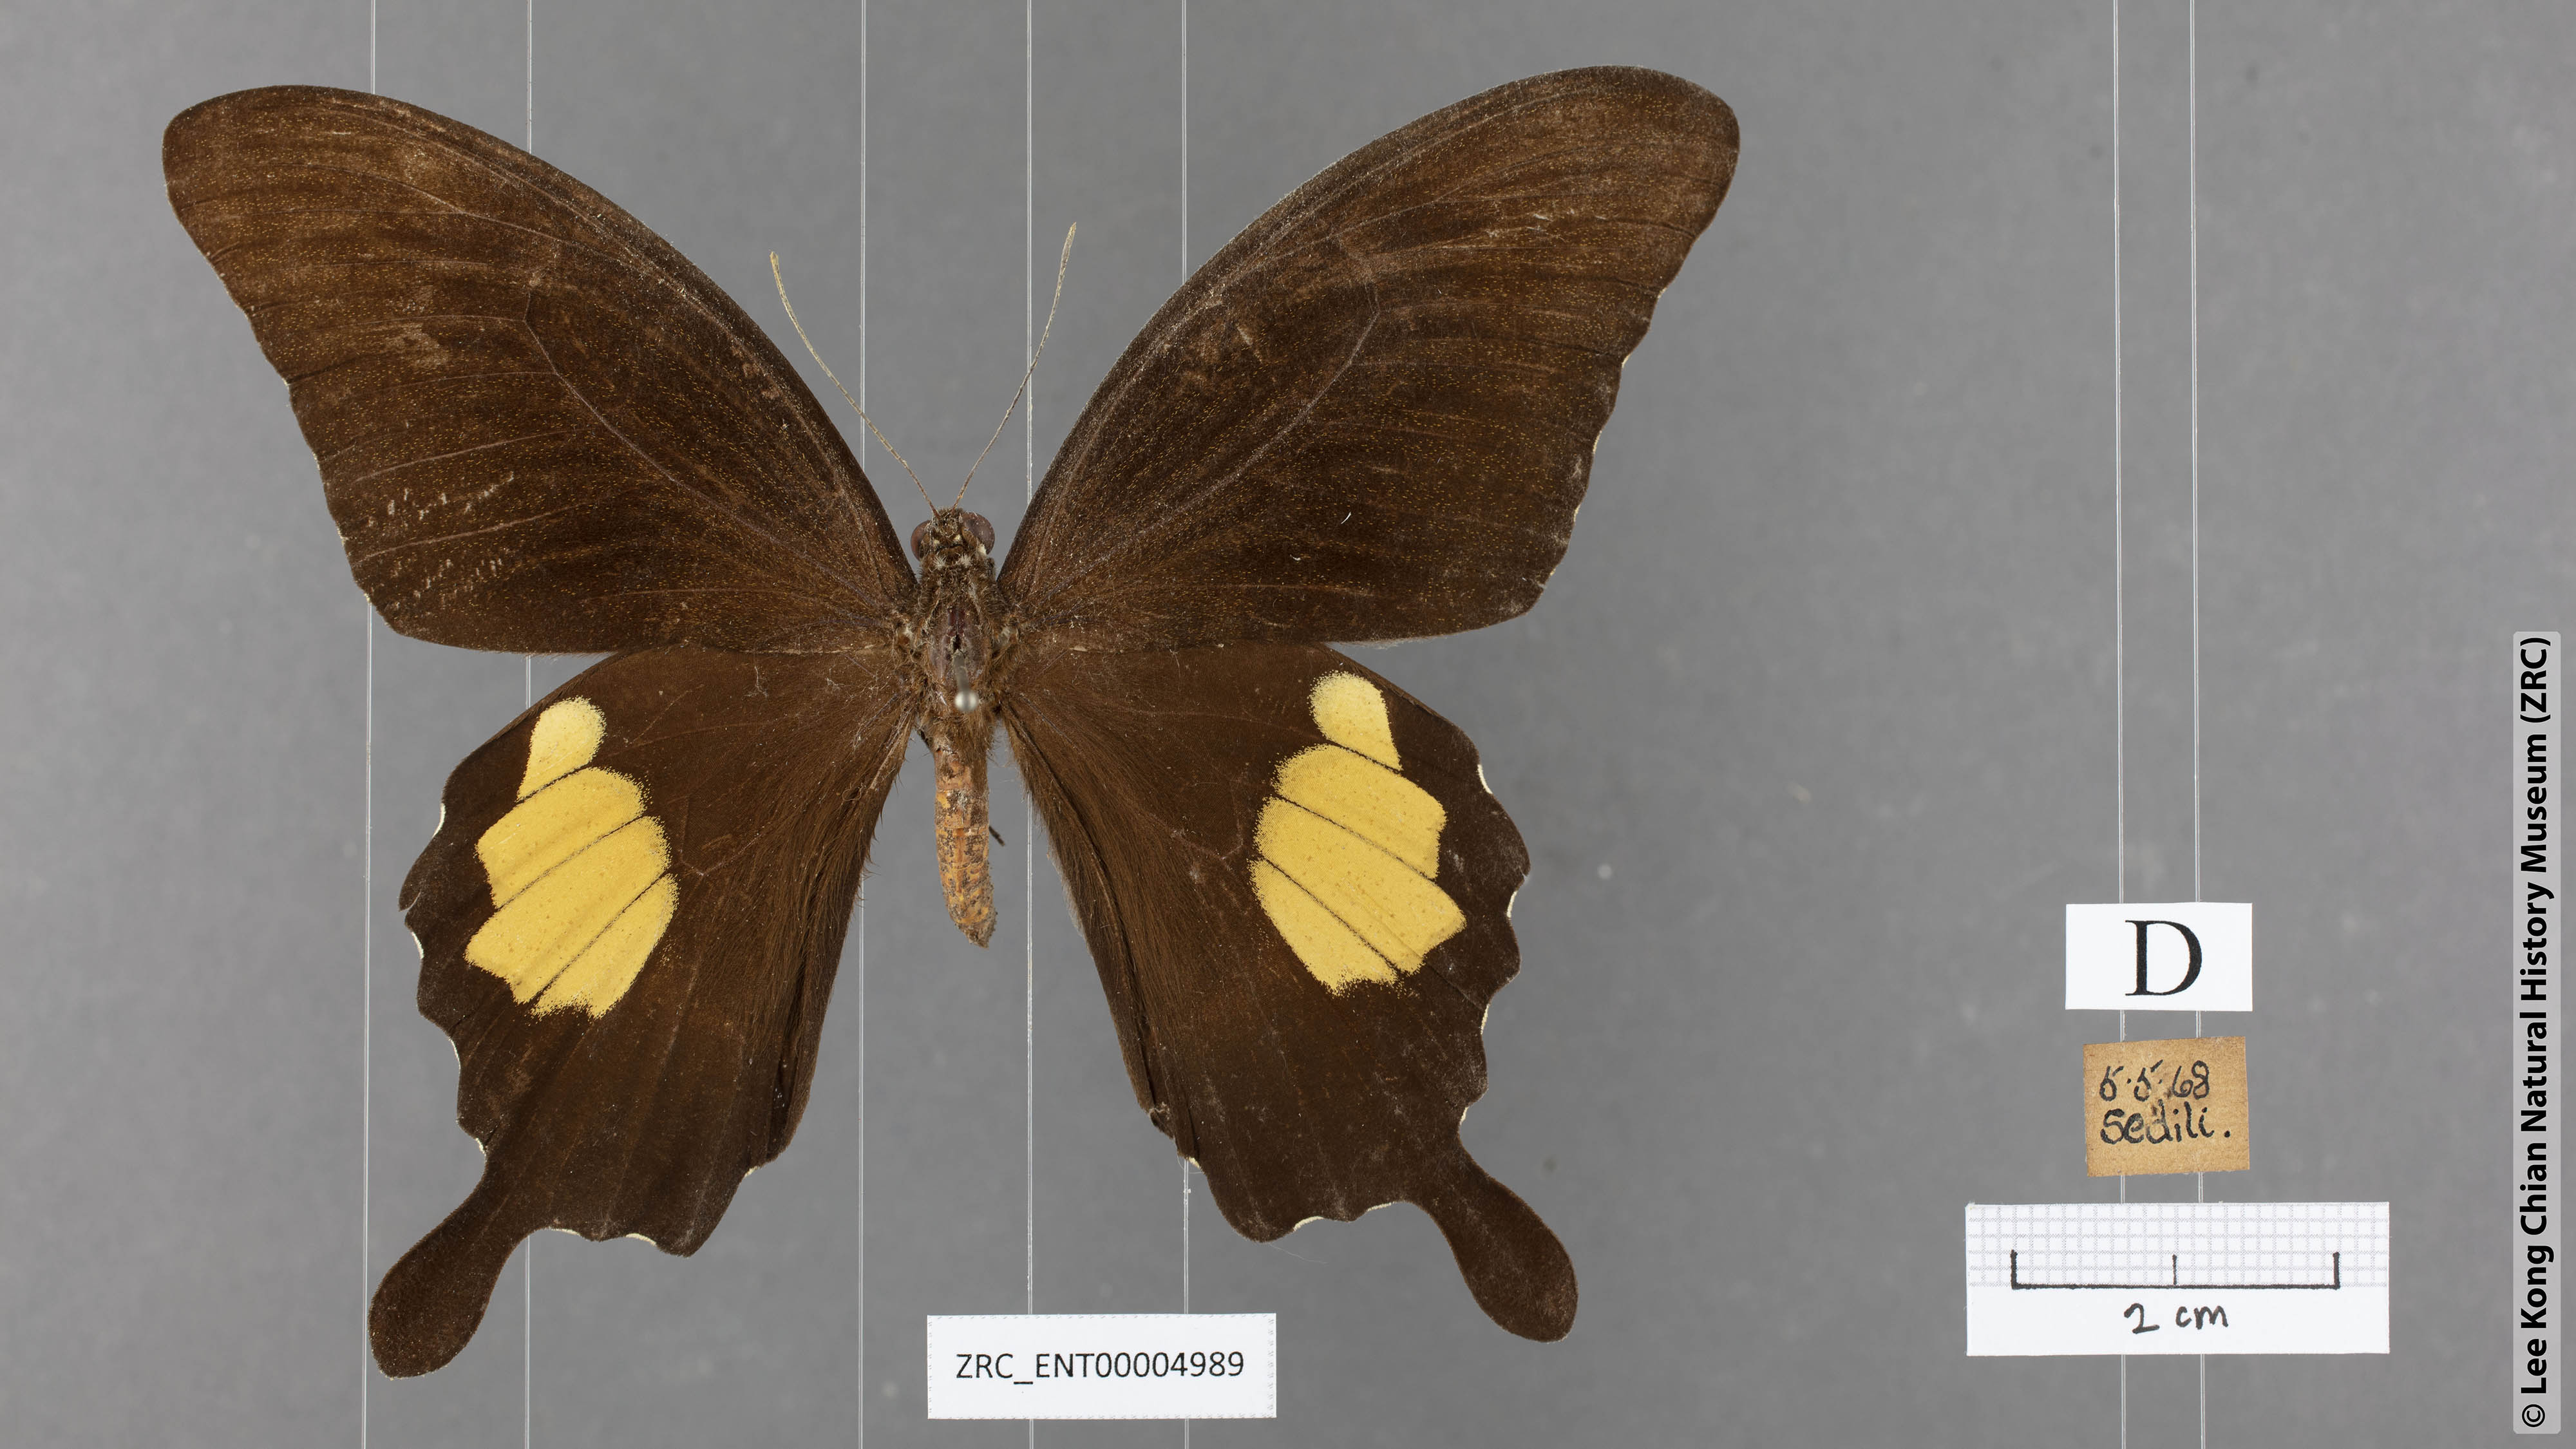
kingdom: Animalia
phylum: Arthropoda
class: Insecta
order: Lepidoptera
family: Papilionidae
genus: Papilio
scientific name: Papilio prexaspes
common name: Blue helen swallowtail
